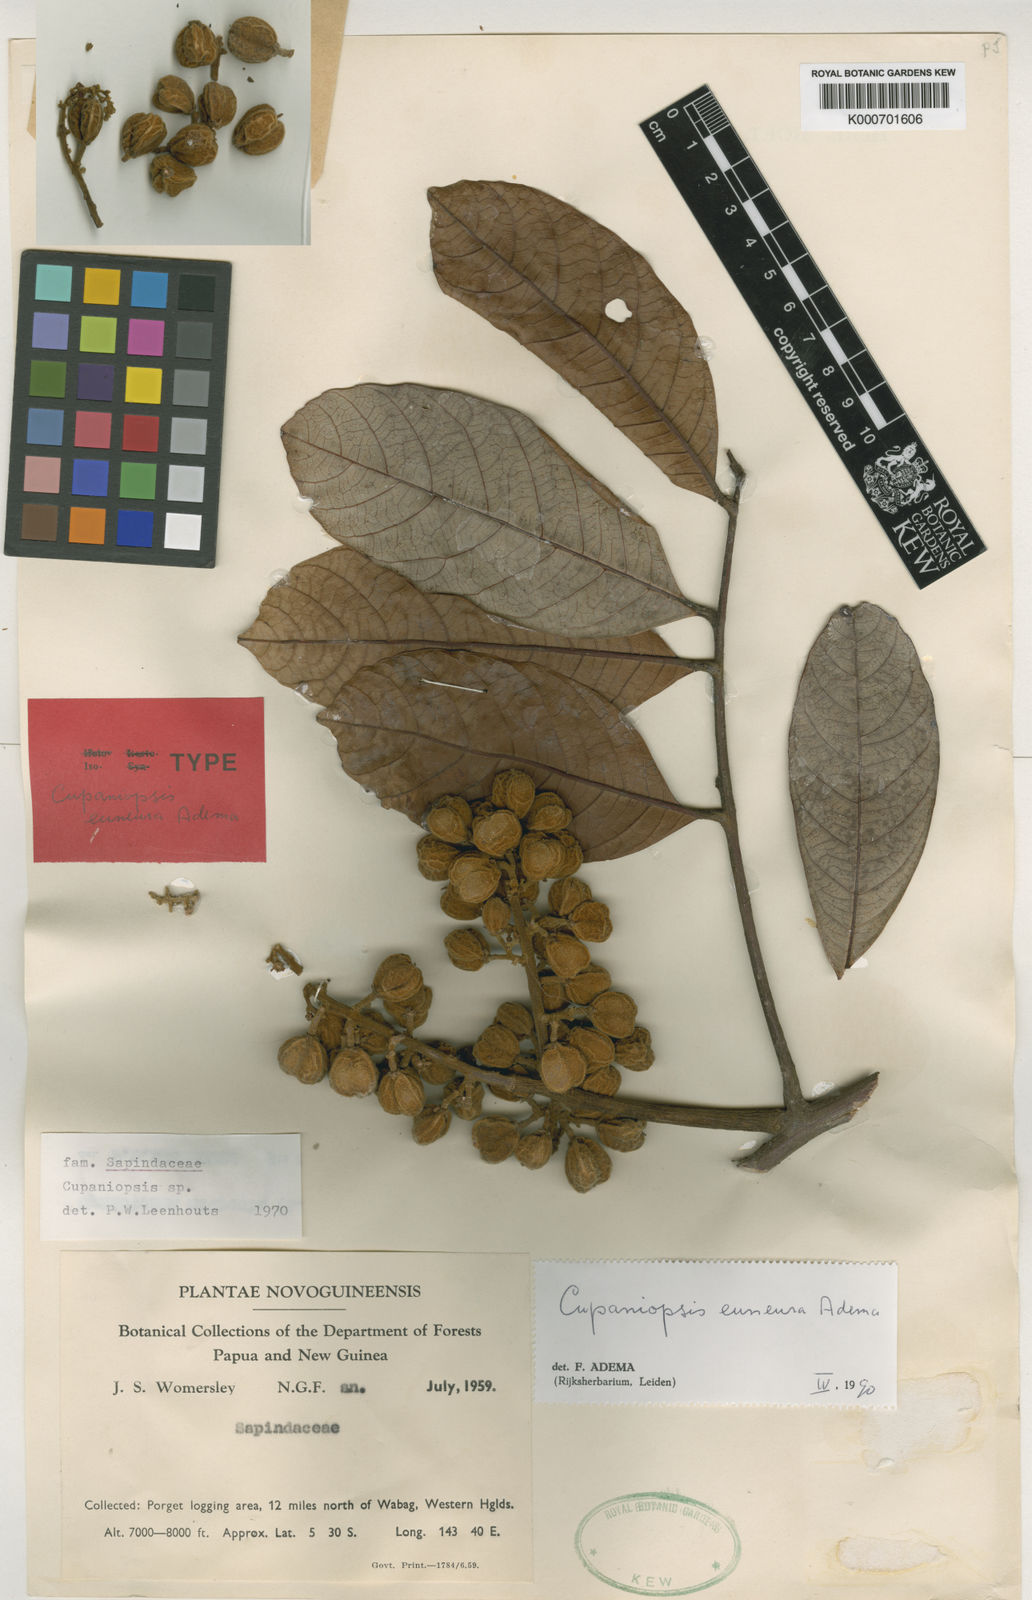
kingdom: Plantae
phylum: Tracheophyta
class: Magnoliopsida
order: Sapindales
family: Sapindaceae
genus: Cupaniopsis
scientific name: Cupaniopsis euneura
